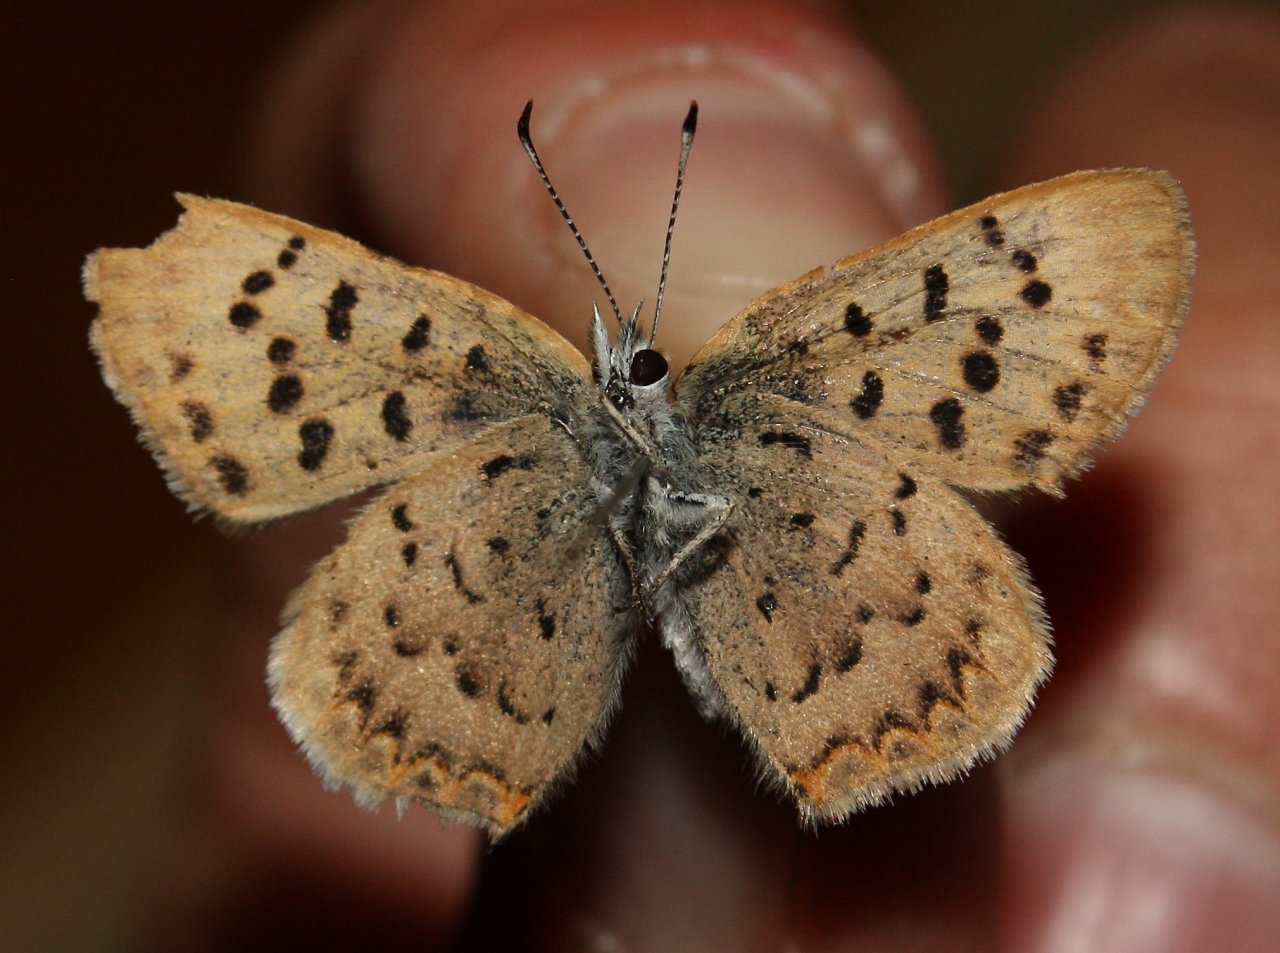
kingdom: Animalia
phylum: Arthropoda
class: Insecta
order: Lepidoptera
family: Lycaenidae
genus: Epidemia
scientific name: Epidemia dorcas
